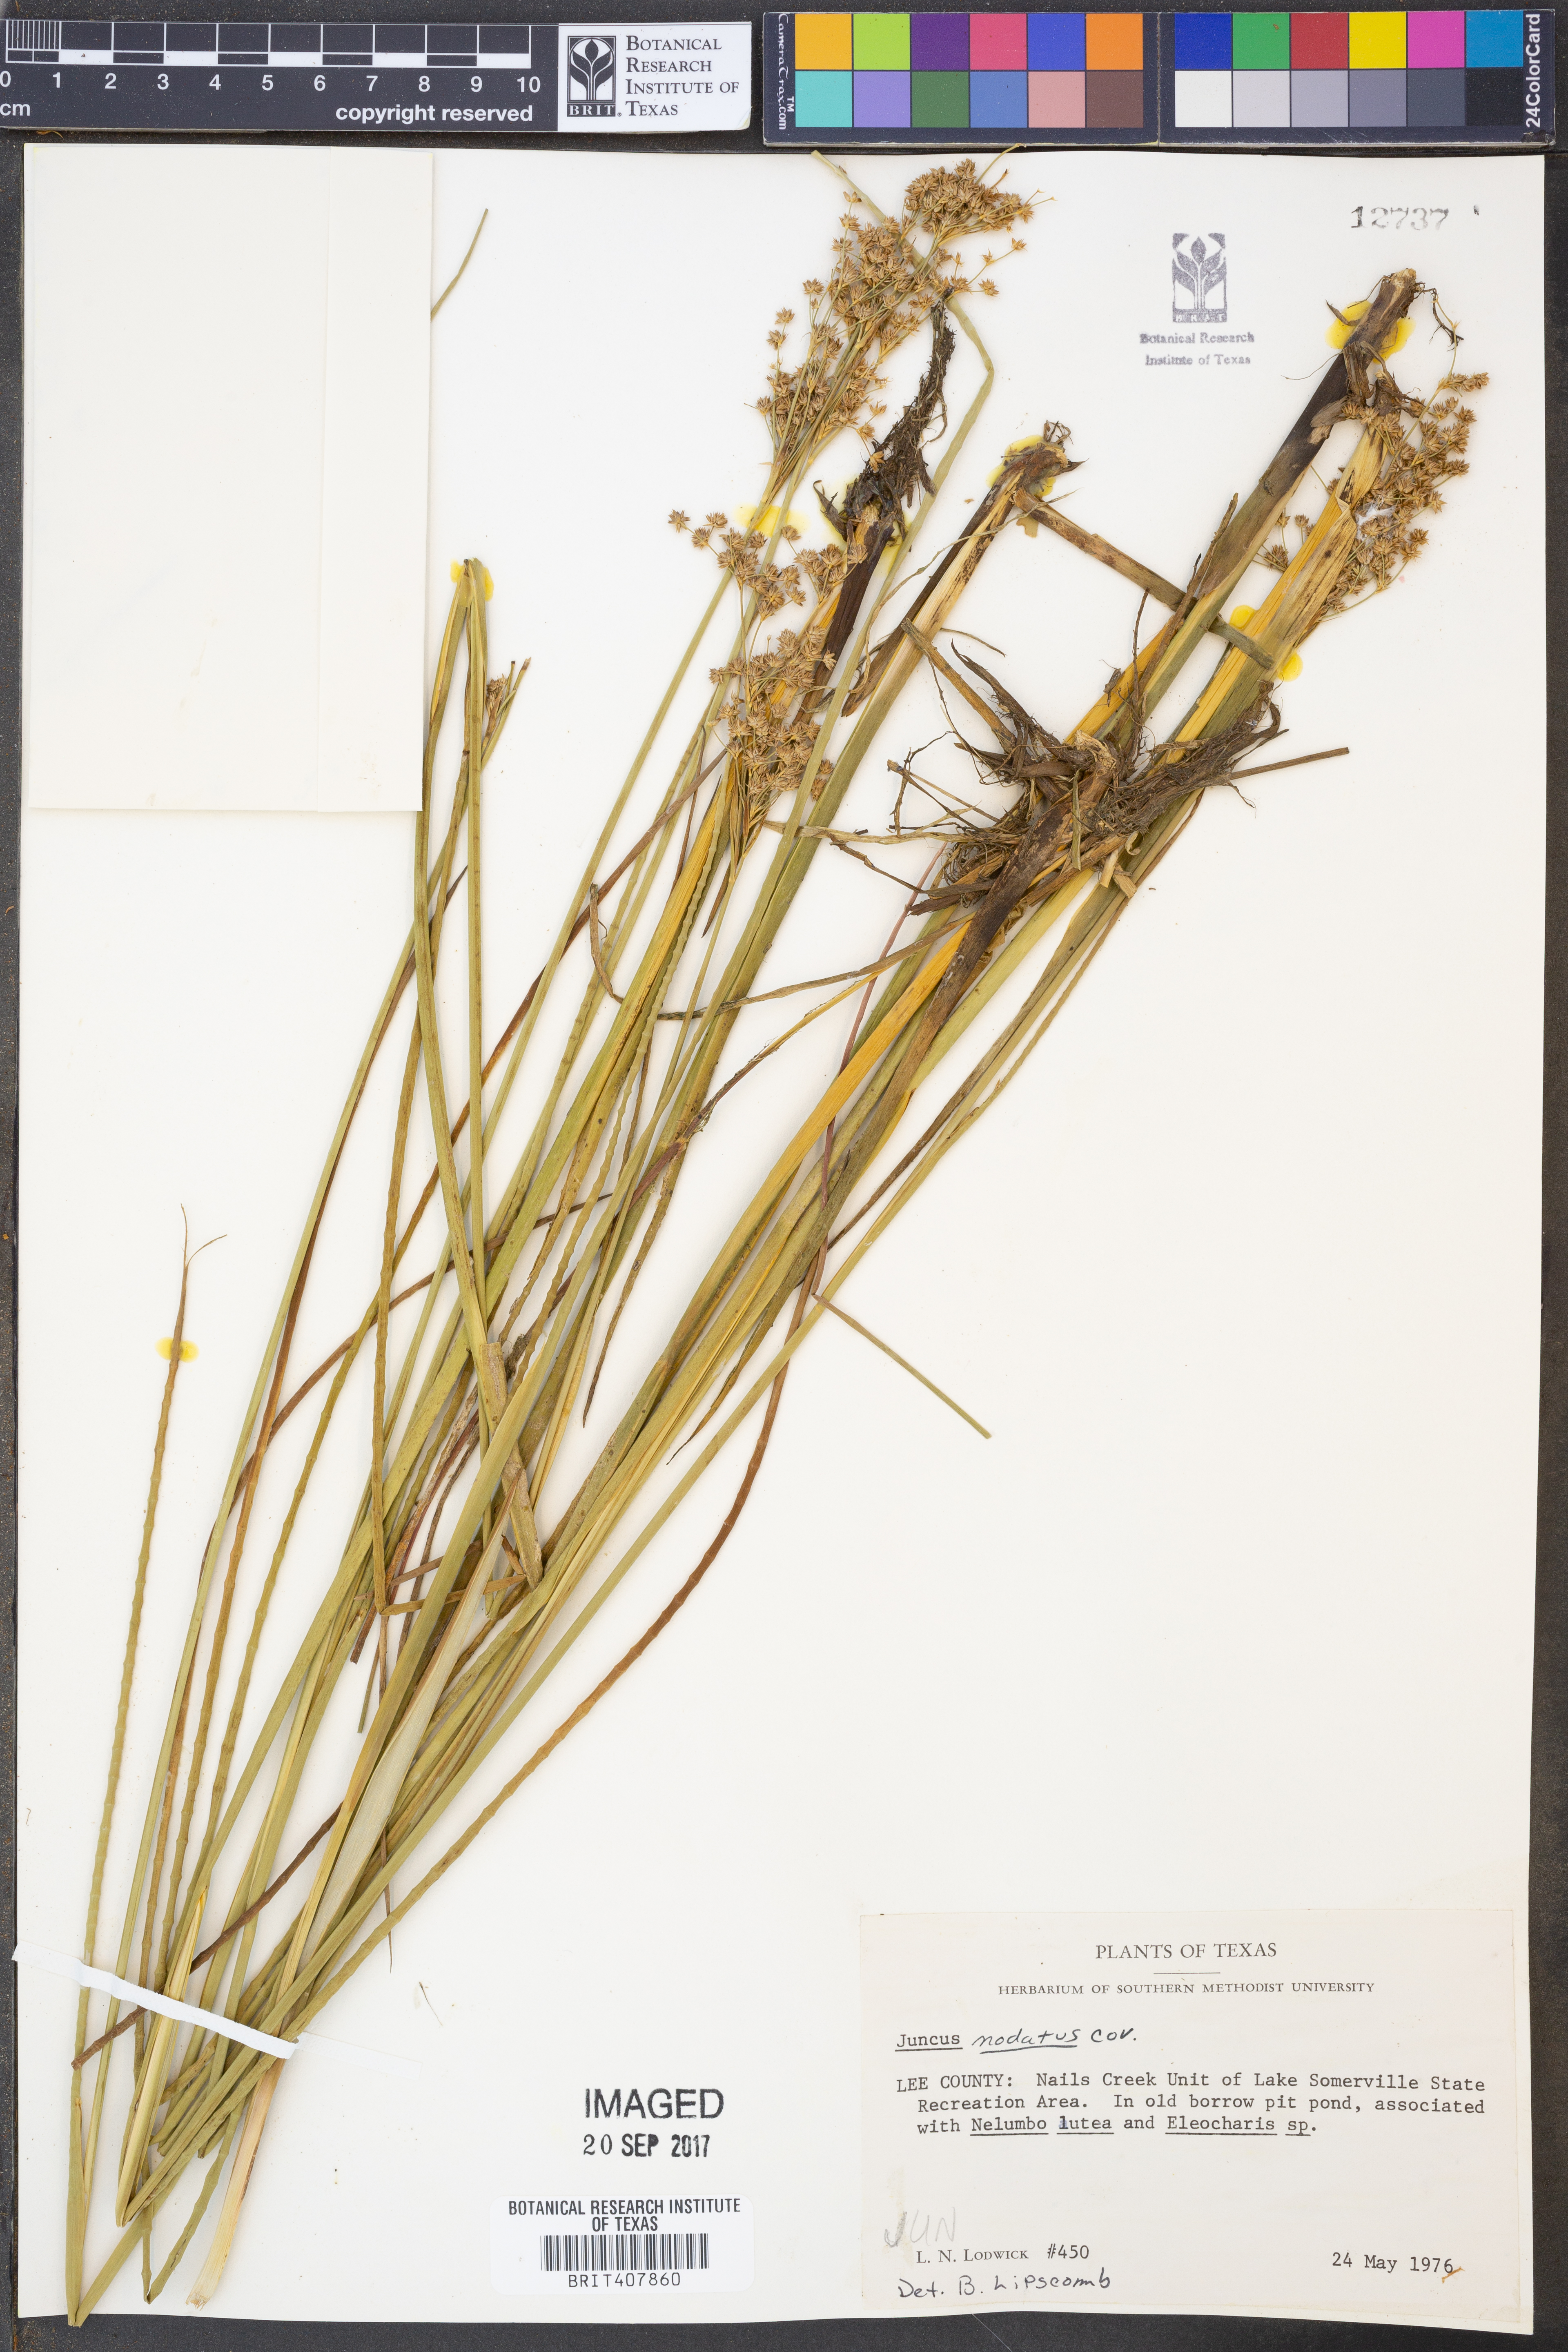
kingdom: Plantae
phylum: Tracheophyta
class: Liliopsida
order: Poales
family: Juncaceae
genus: Juncus
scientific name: Juncus nodatus
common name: Stout rush
